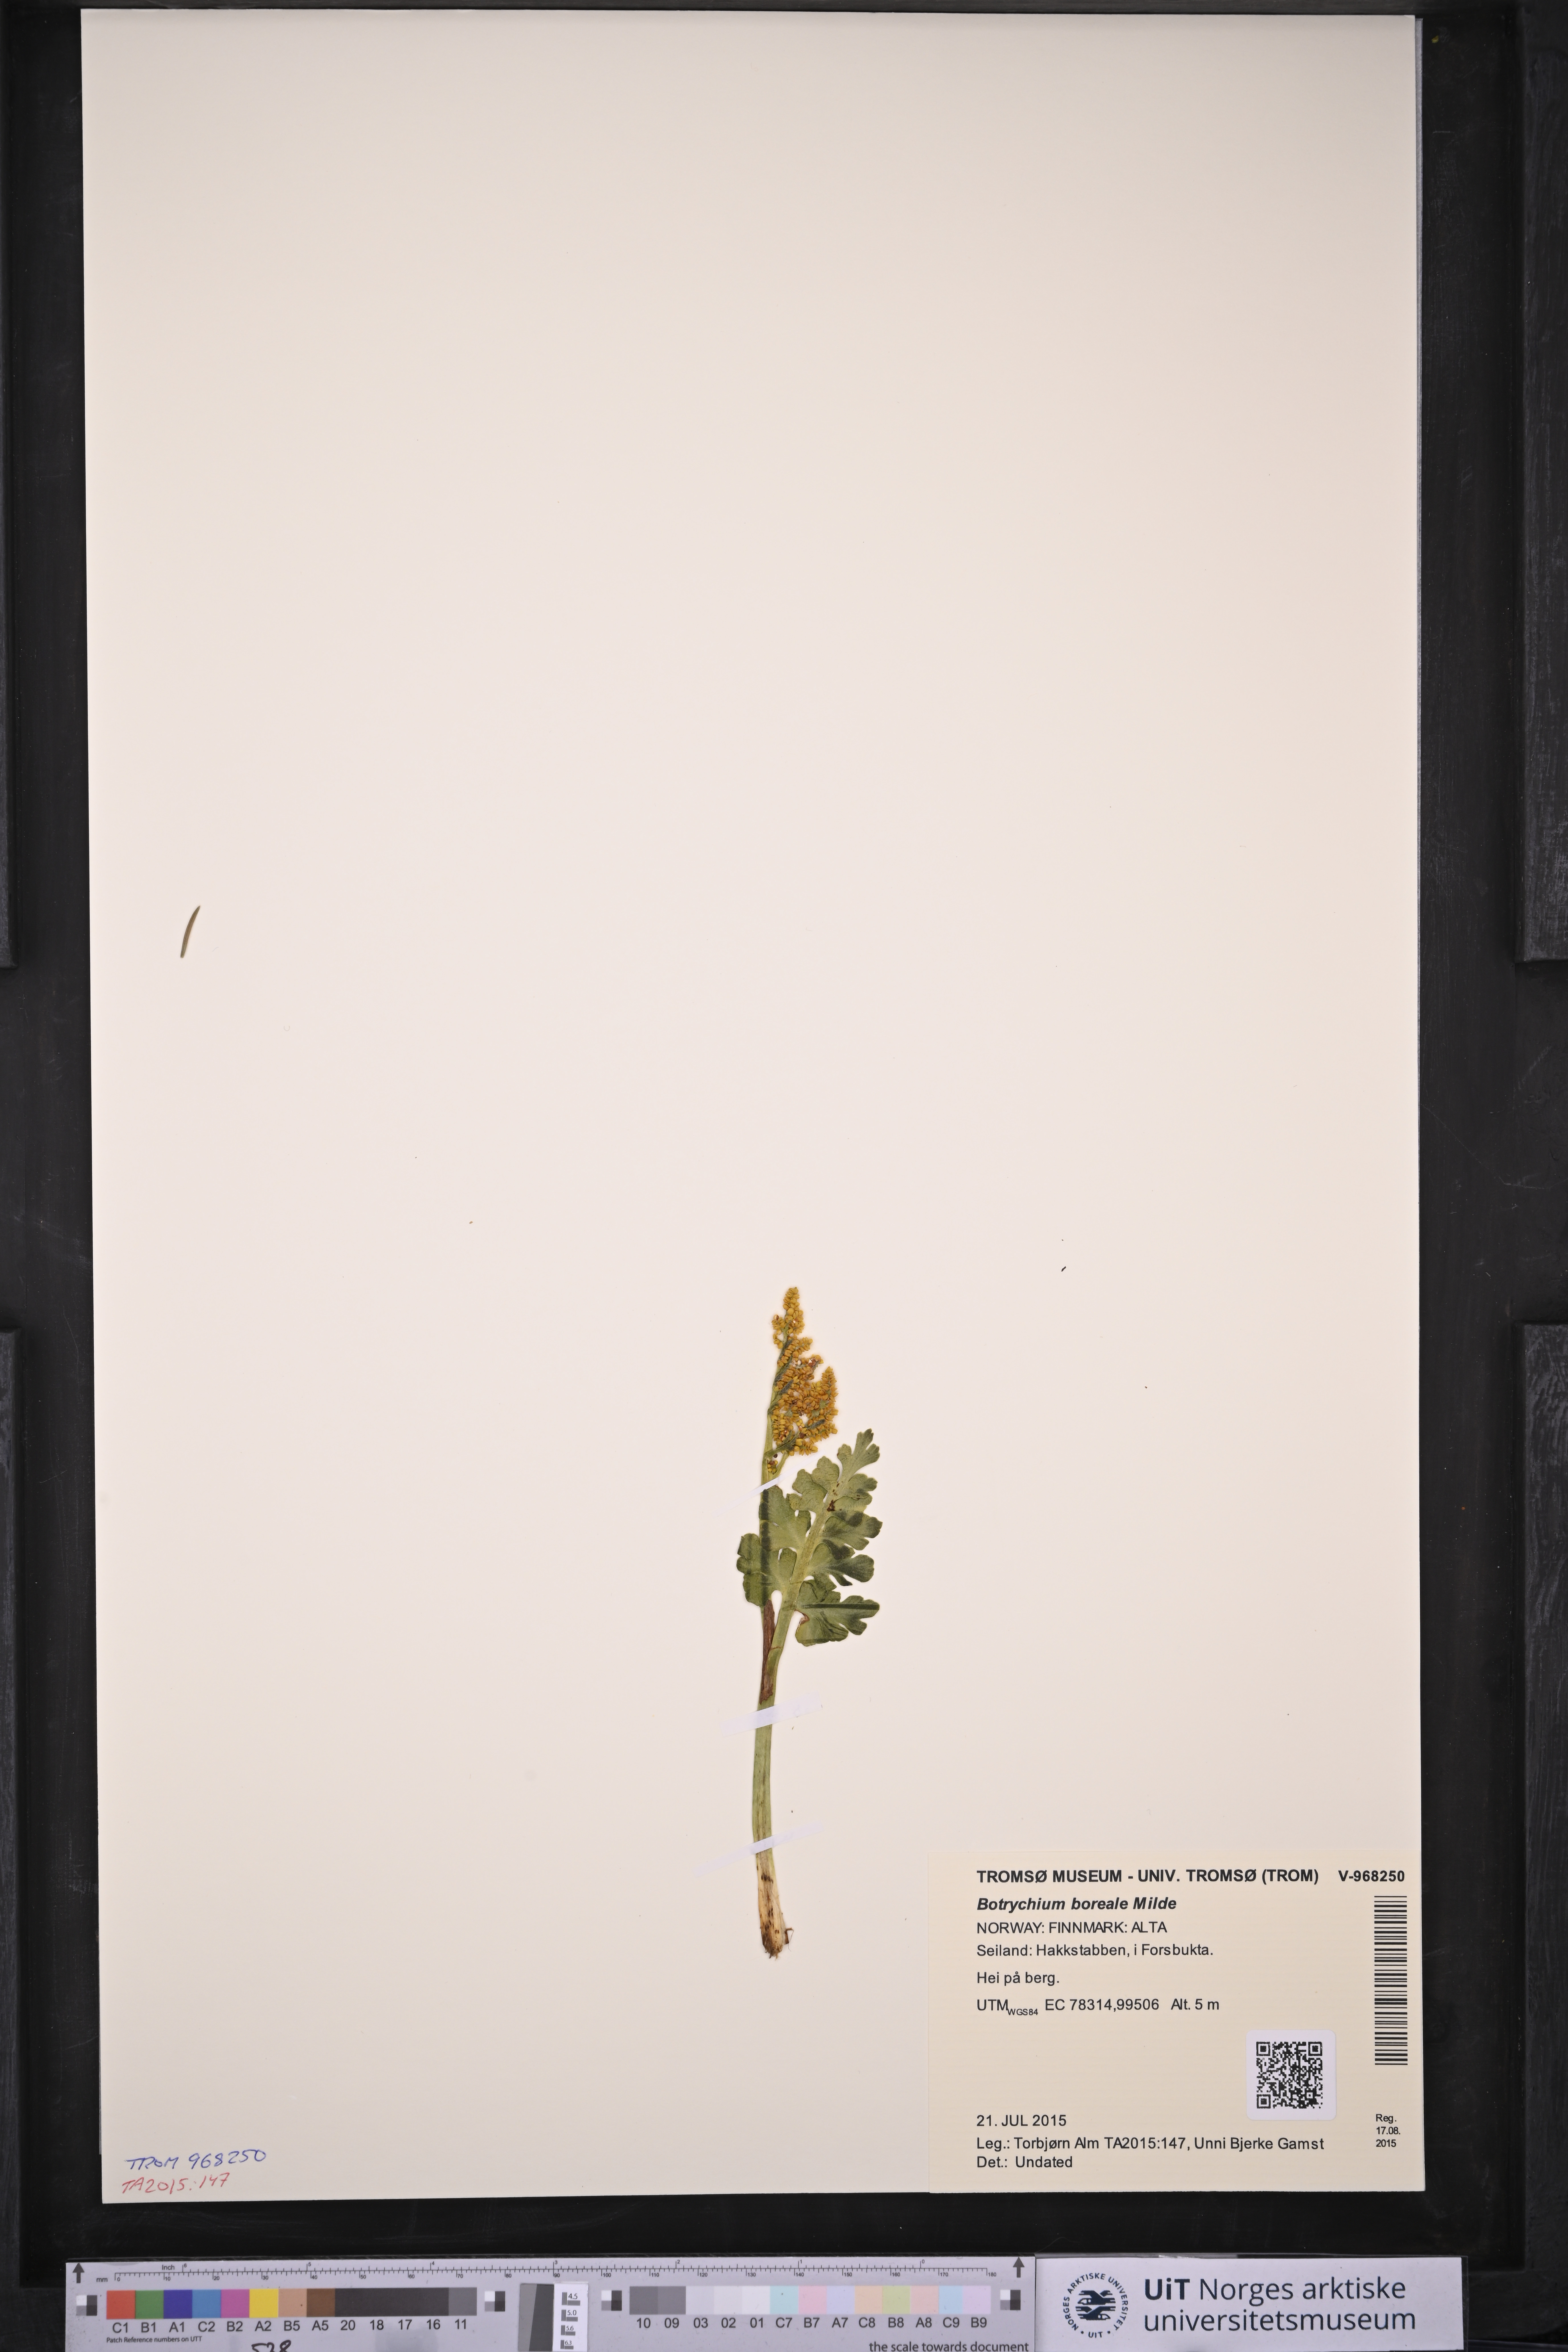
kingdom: Plantae
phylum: Tracheophyta
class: Polypodiopsida
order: Ophioglossales
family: Ophioglossaceae
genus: Botrychium
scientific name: Botrychium boreale
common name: Boreal moonwort
